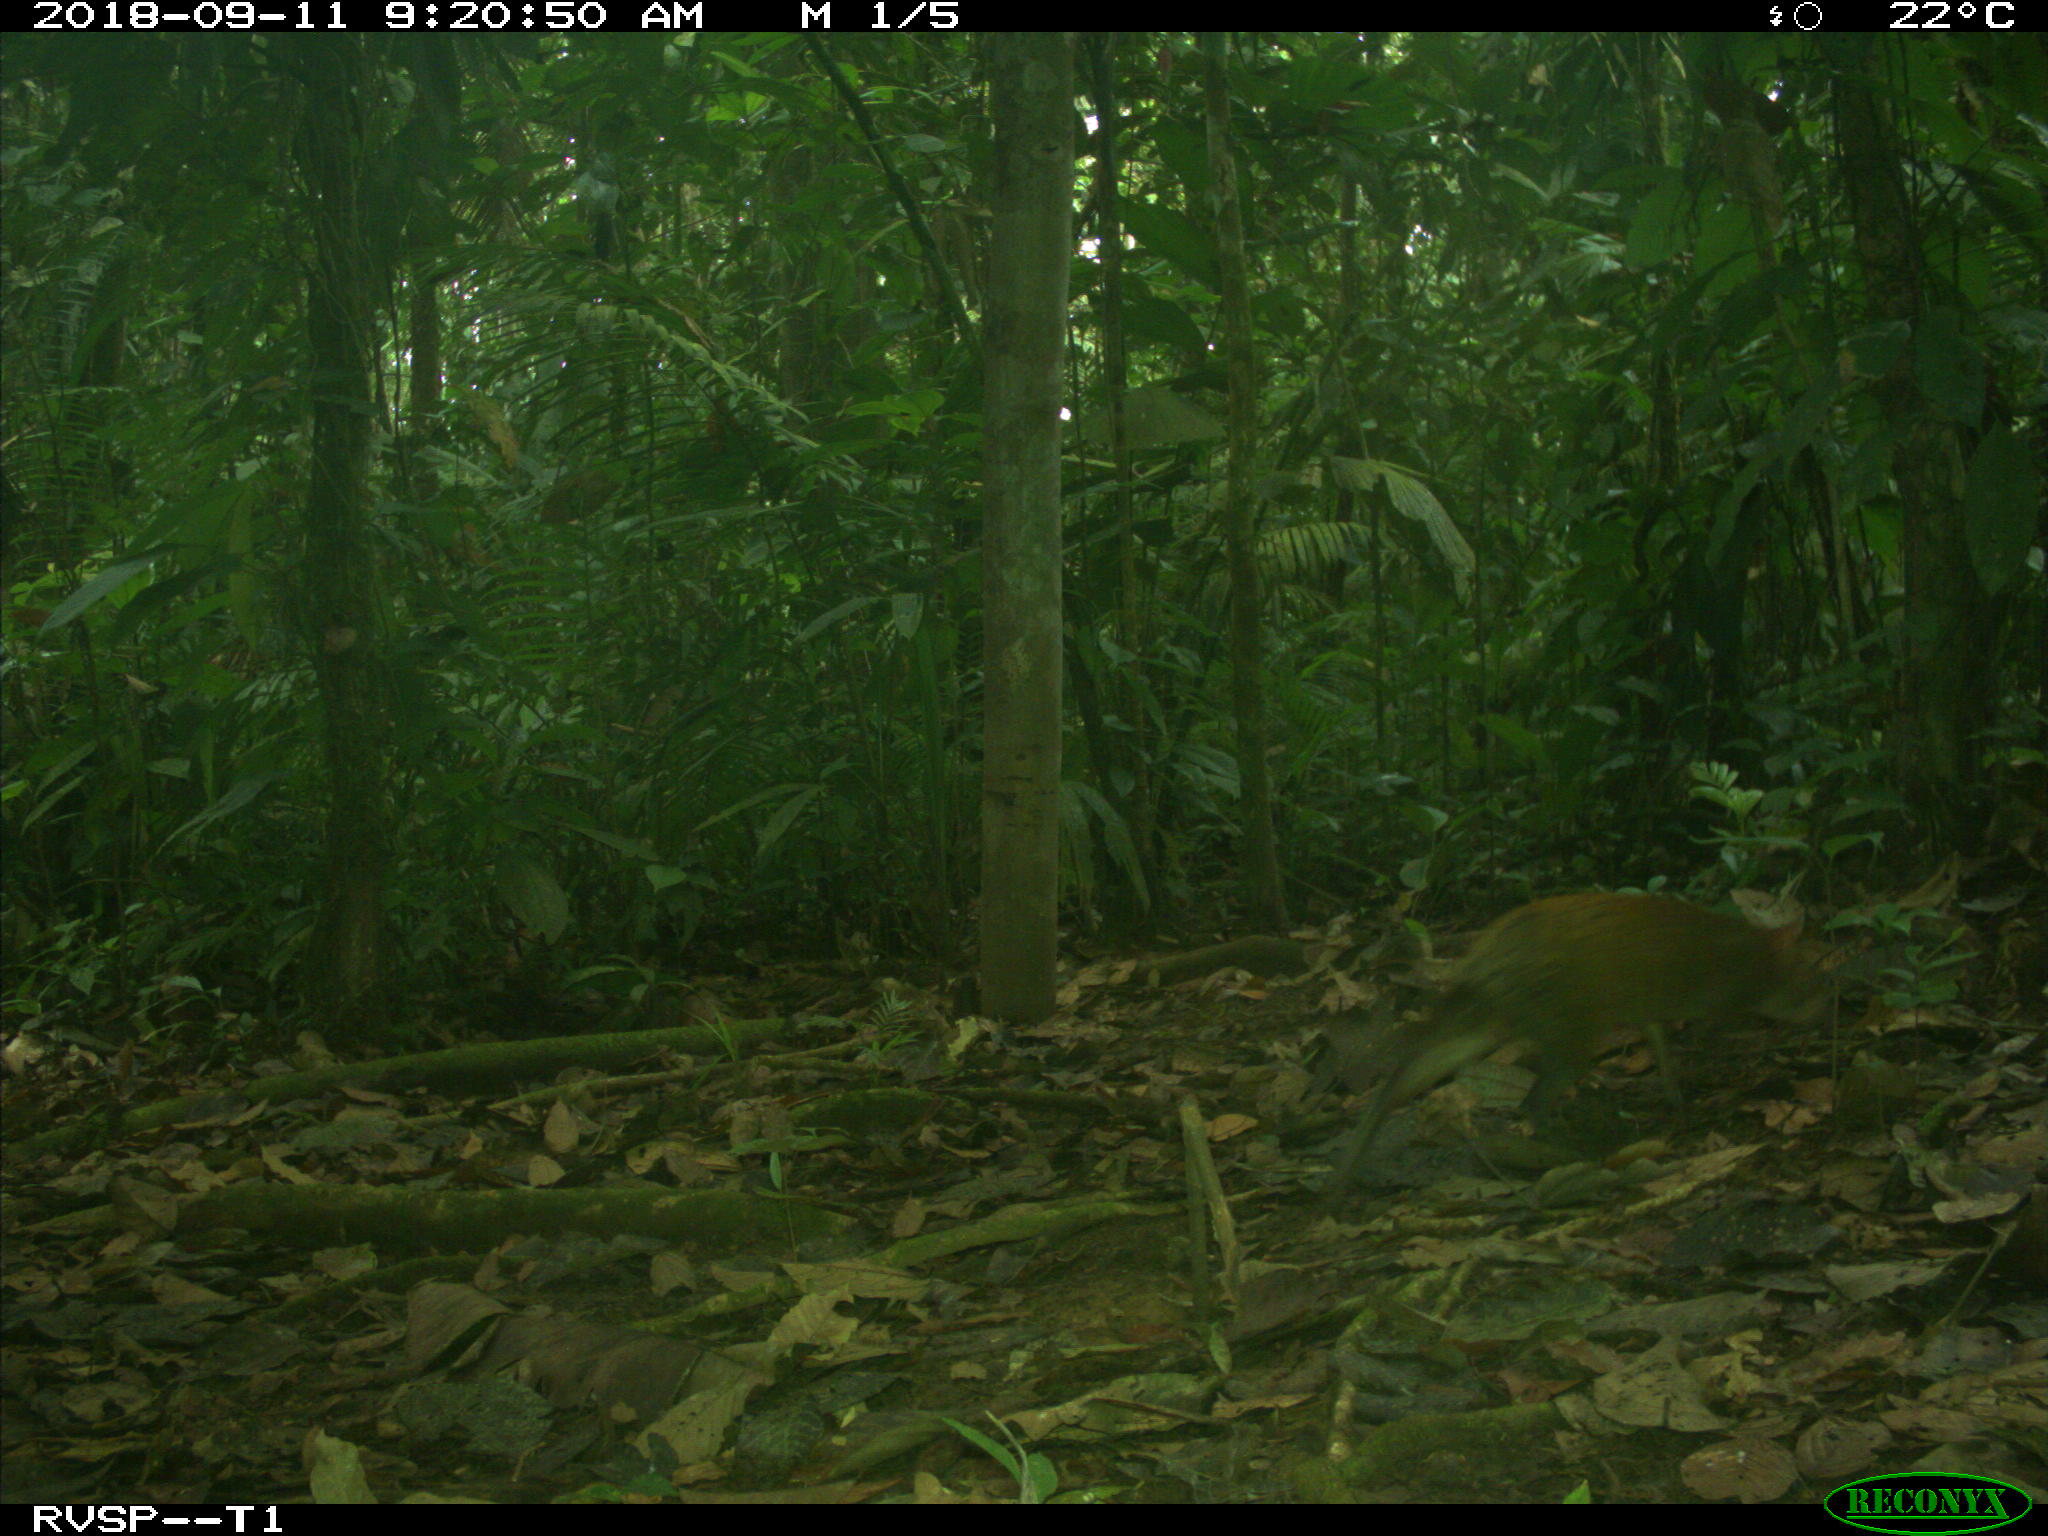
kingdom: Animalia
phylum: Chordata
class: Mammalia
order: Rodentia
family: Dasyproctidae
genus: Dasyprocta
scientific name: Dasyprocta punctata
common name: Central american agouti
